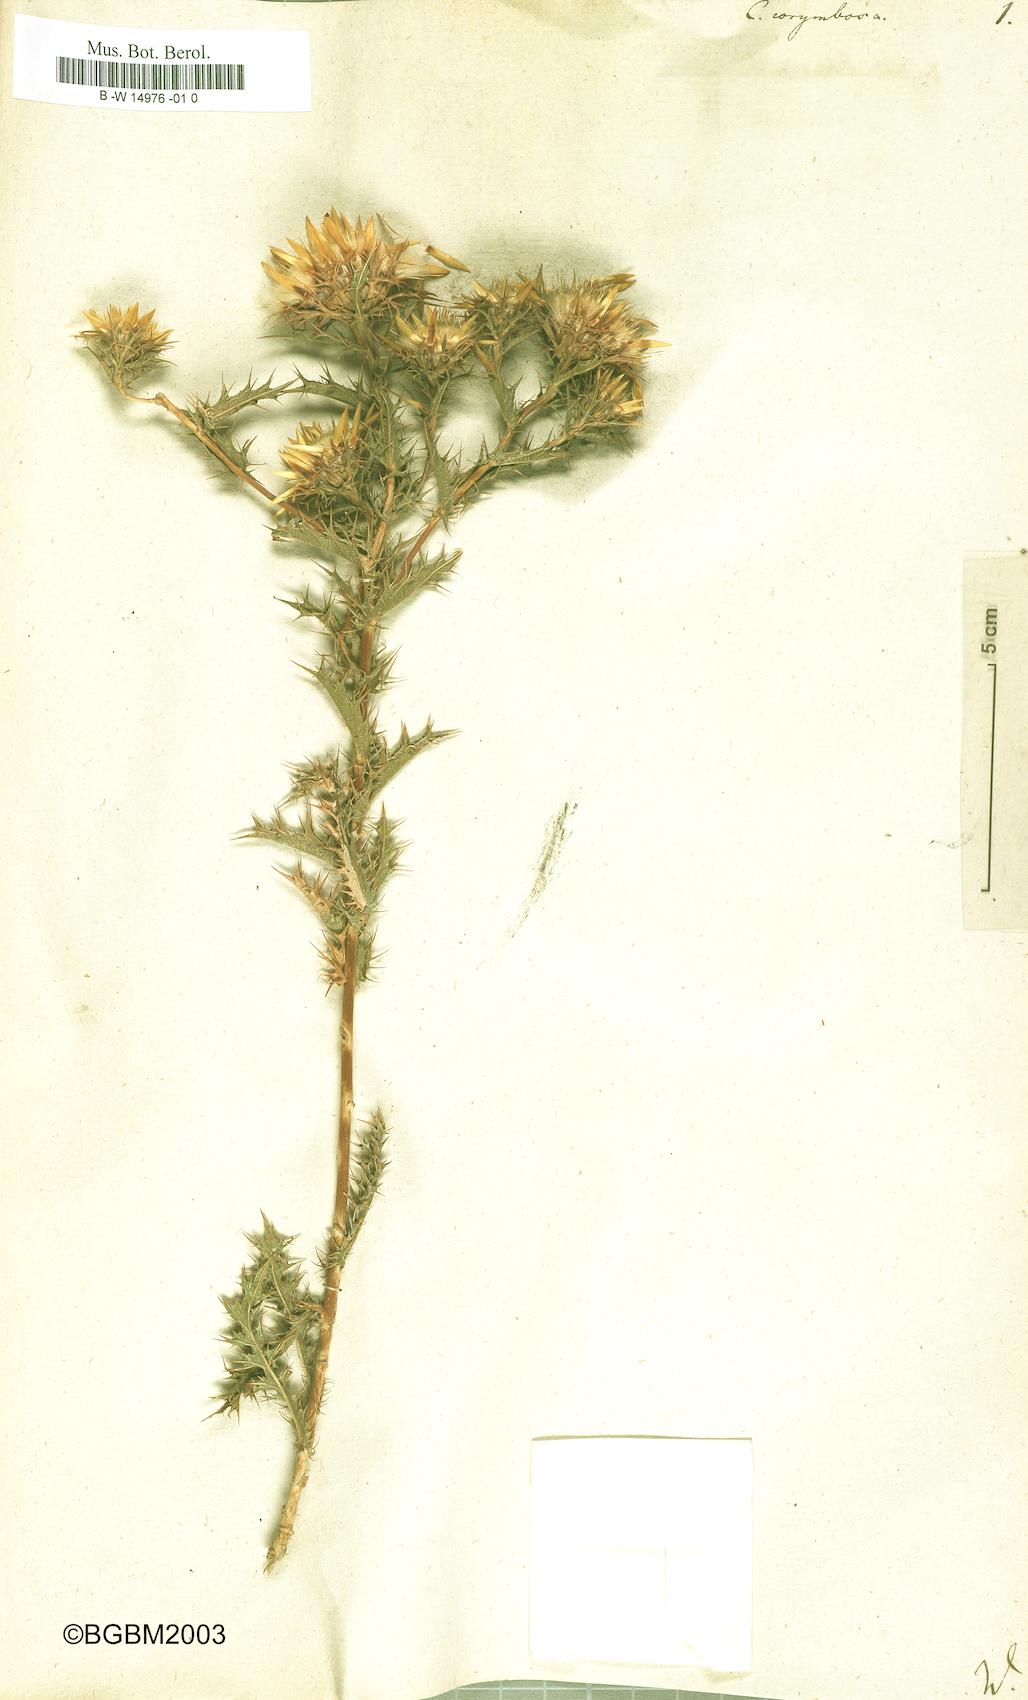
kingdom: Plantae
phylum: Tracheophyta
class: Magnoliopsida
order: Asterales
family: Asteraceae
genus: Carlina
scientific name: Carlina corymbosa
